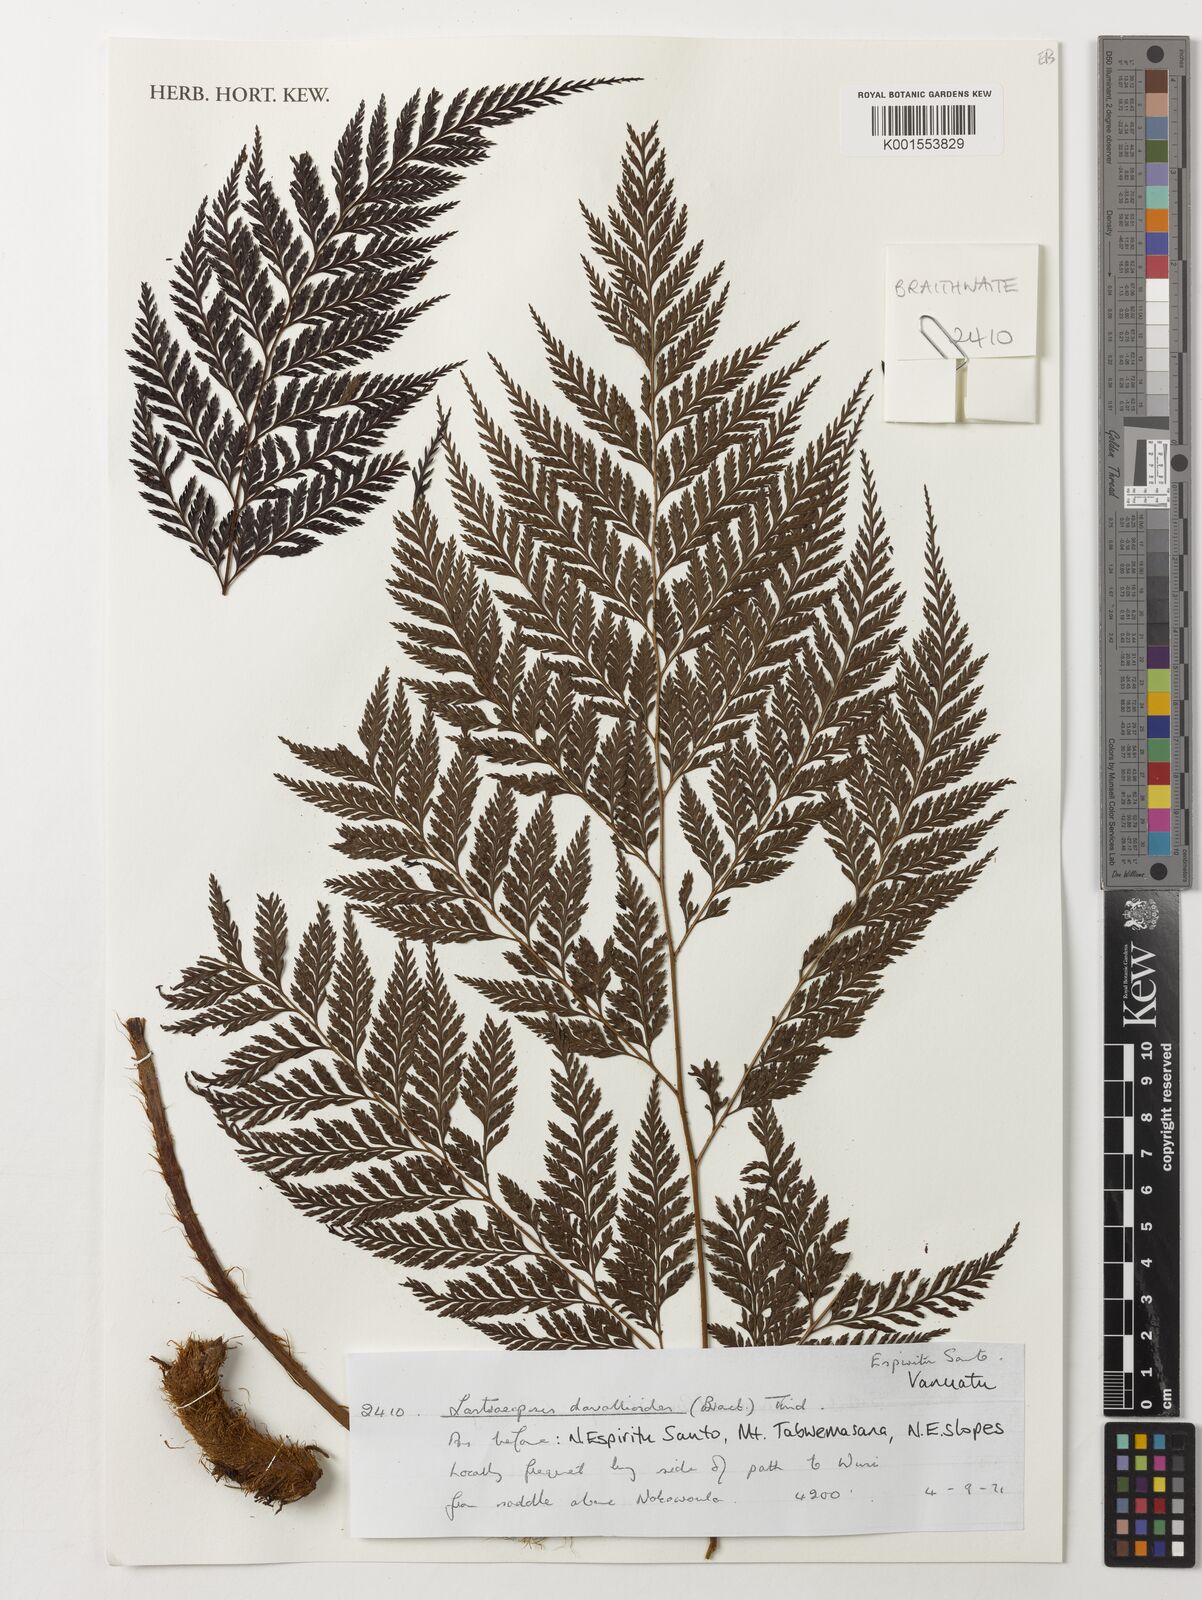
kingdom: Plantae
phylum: Tracheophyta
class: Polypodiopsida
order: Polypodiales
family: Dryopteridaceae
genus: Lastreopsis
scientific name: Lastreopsis davallioides
